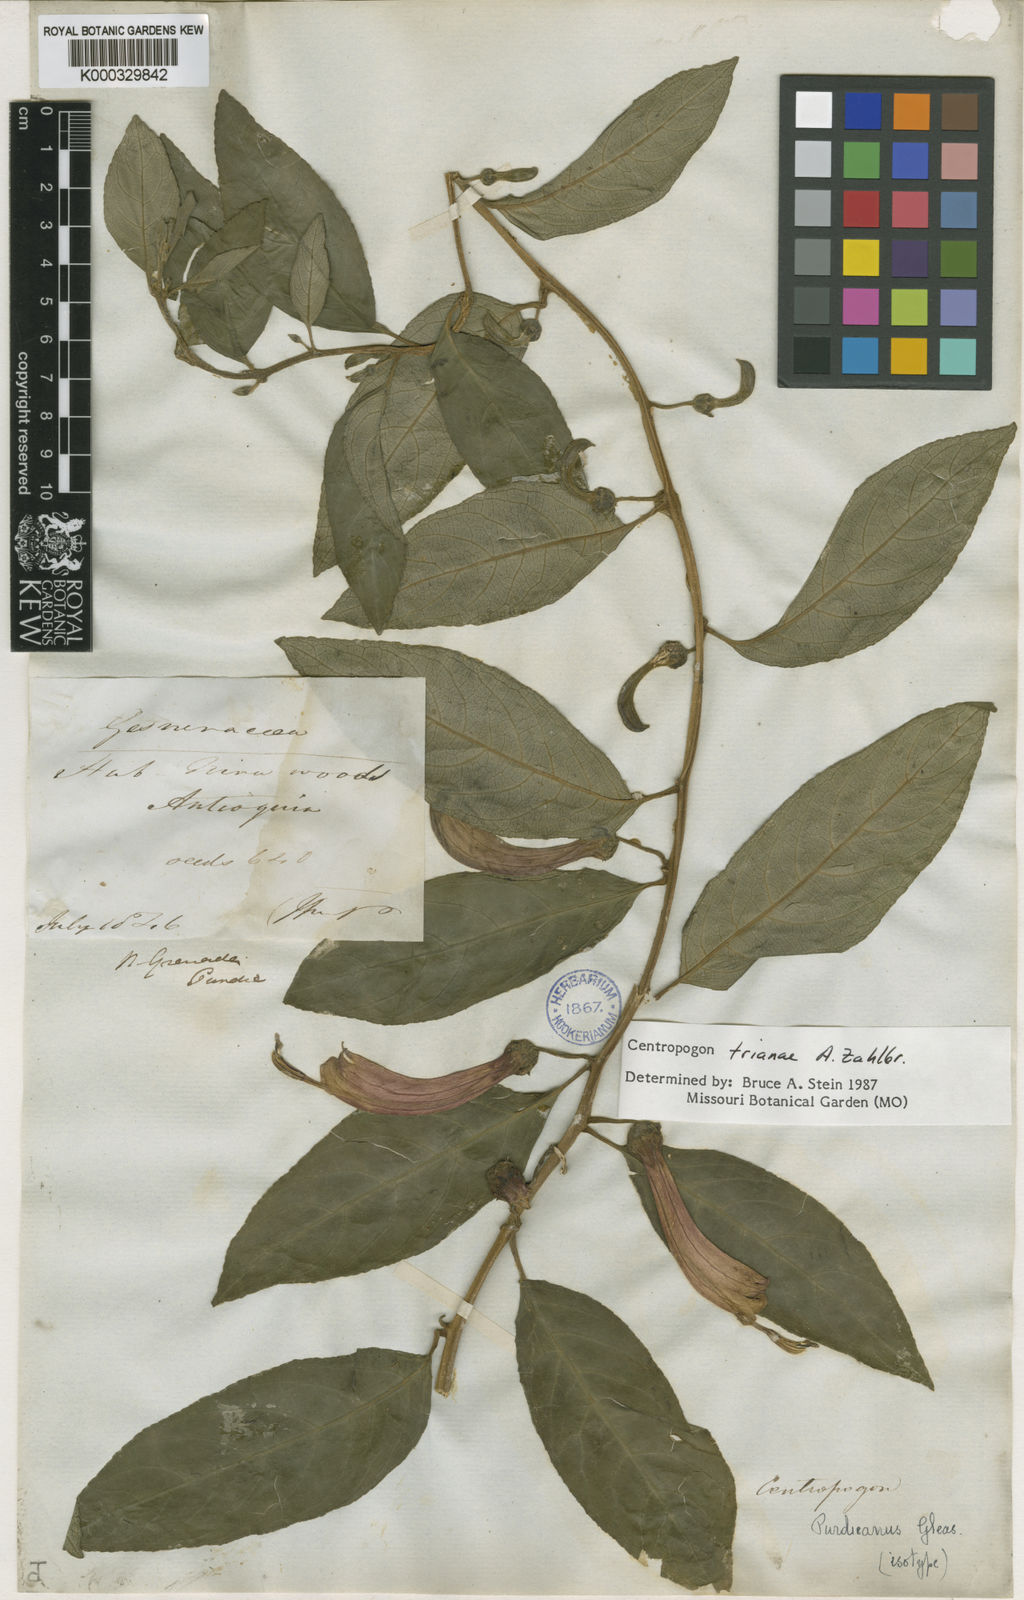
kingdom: Plantae
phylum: Tracheophyta
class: Magnoliopsida
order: Asterales
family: Campanulaceae
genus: Centropogon
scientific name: Centropogon trianae
